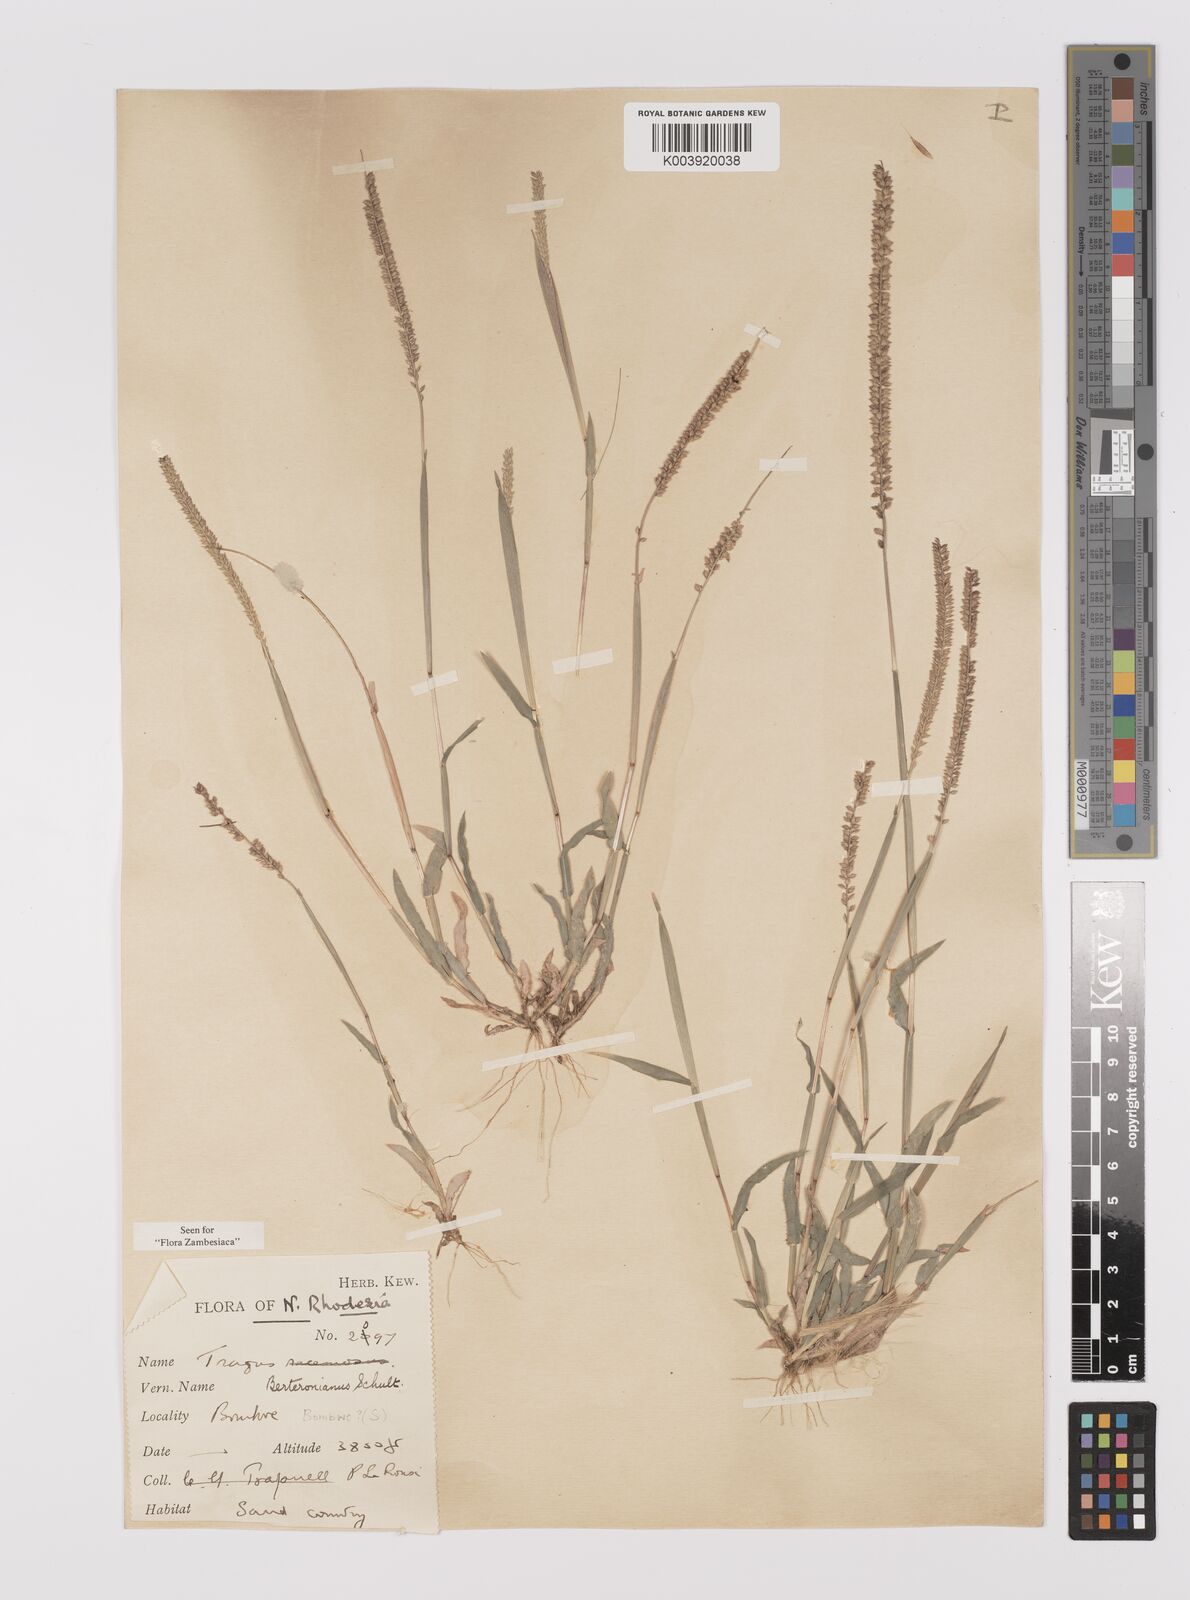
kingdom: Plantae
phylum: Tracheophyta
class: Liliopsida
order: Poales
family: Poaceae
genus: Tragus
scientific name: Tragus berteronianus
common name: African bur-grass
